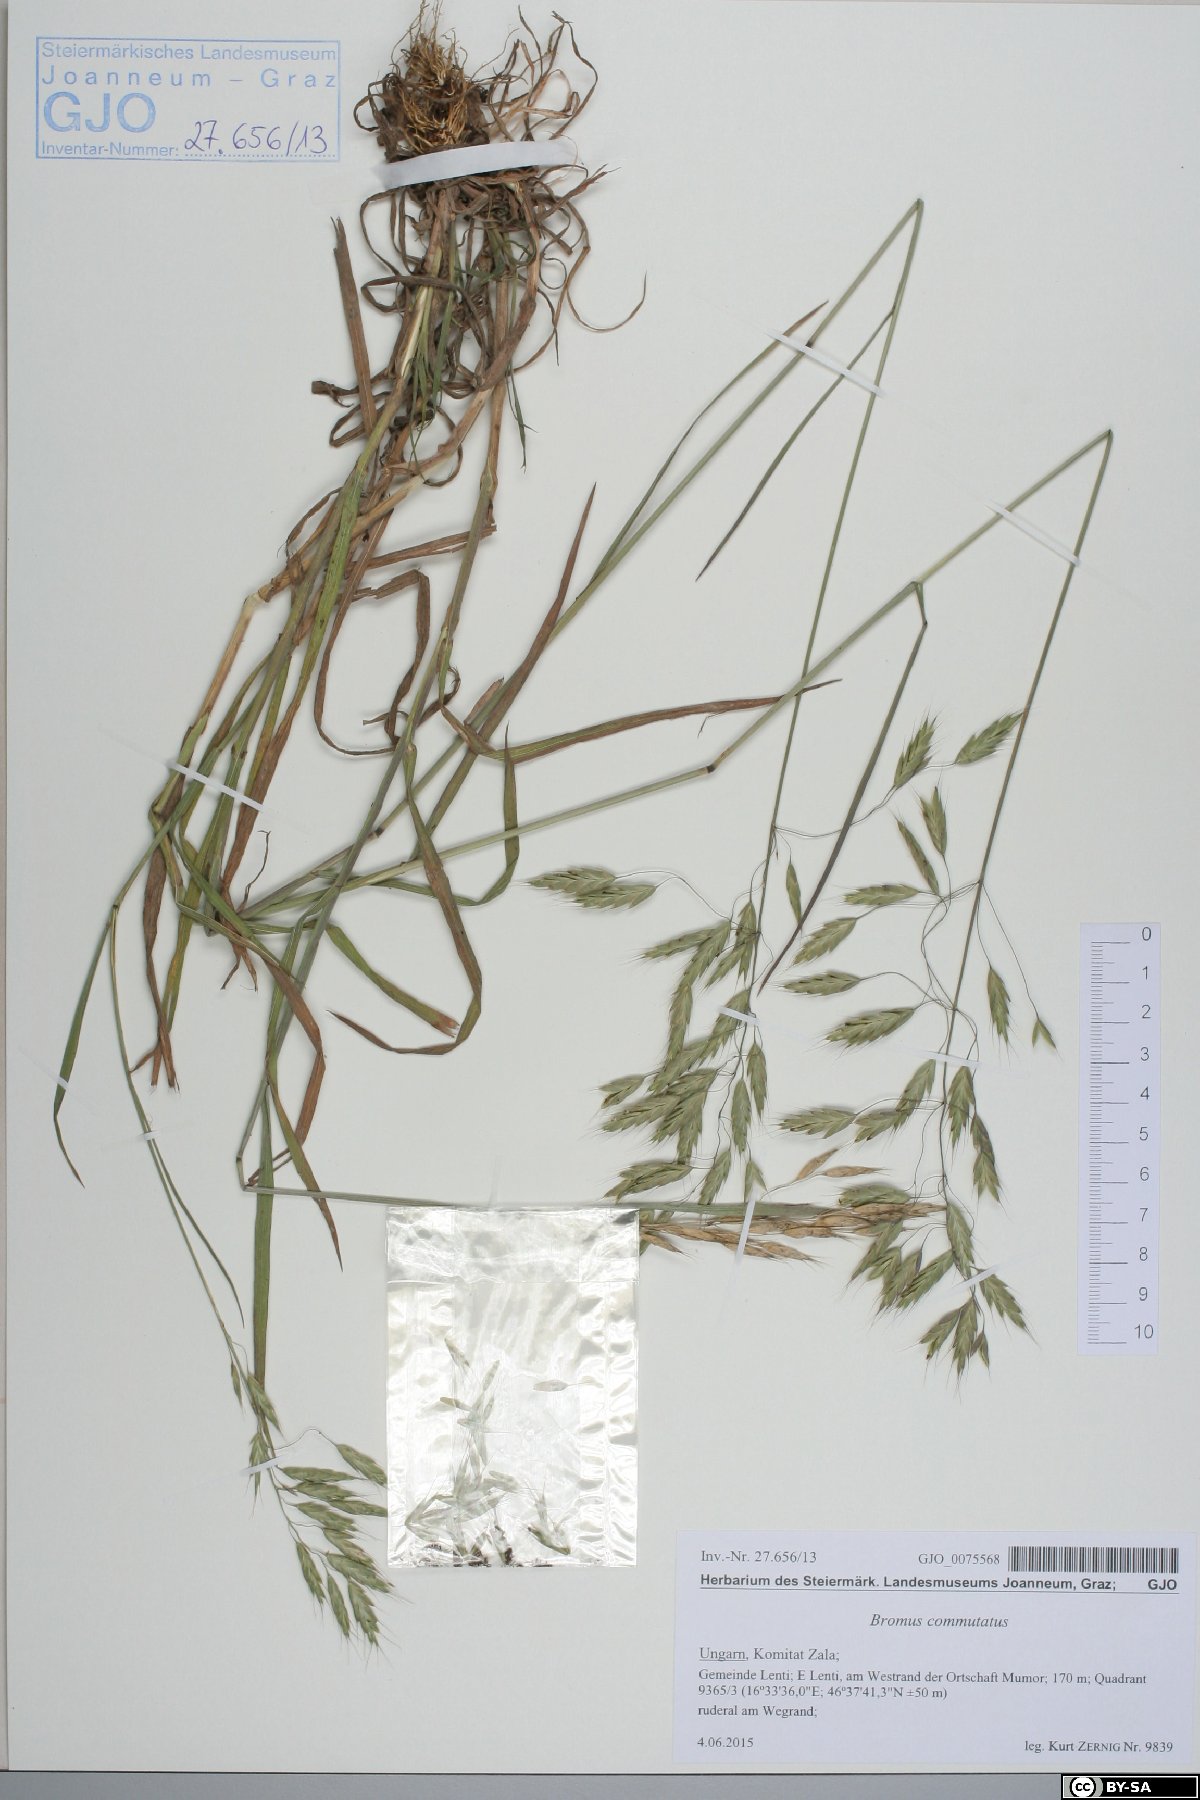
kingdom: Plantae
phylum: Tracheophyta
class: Liliopsida
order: Poales
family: Poaceae
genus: Bromus
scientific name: Bromus commutatus
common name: Meadow brome
